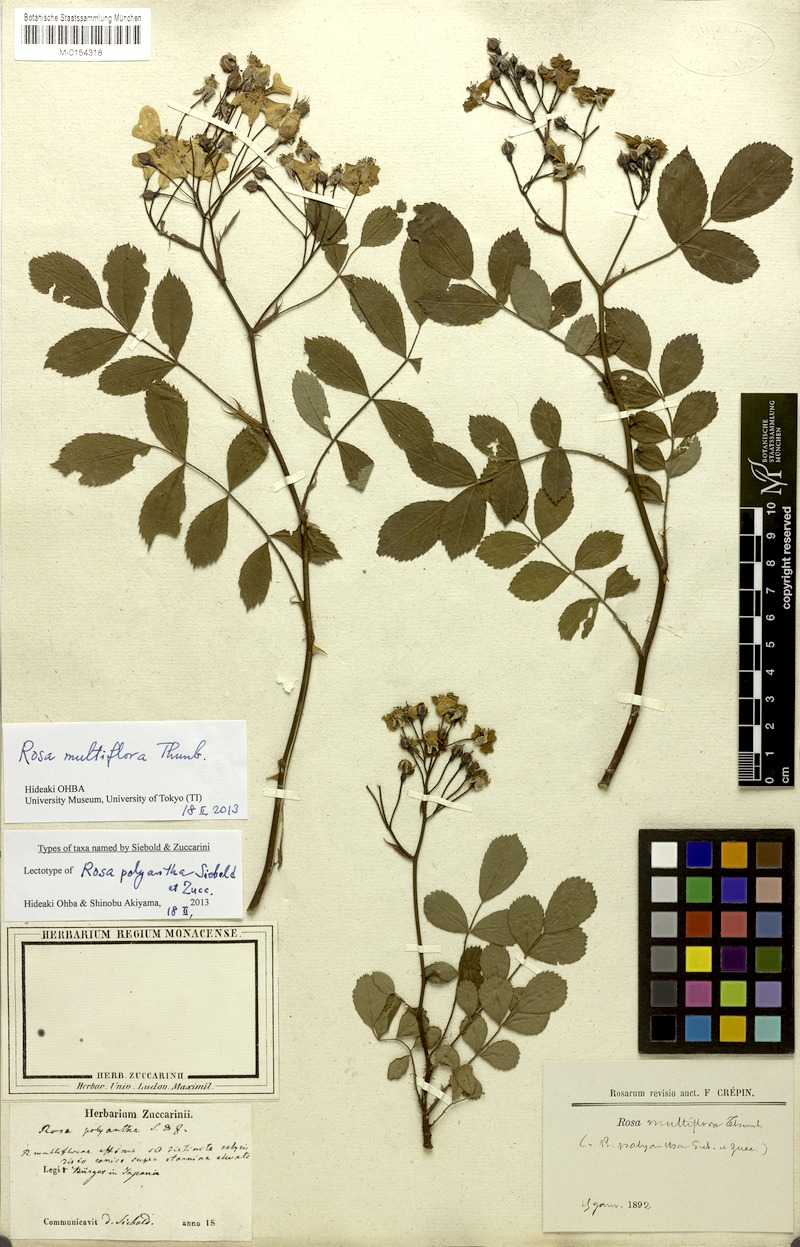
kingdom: Plantae
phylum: Tracheophyta
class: Magnoliopsida
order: Rosales
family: Rosaceae
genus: Rosa
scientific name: Rosa multiflora
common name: Multiflora rose
